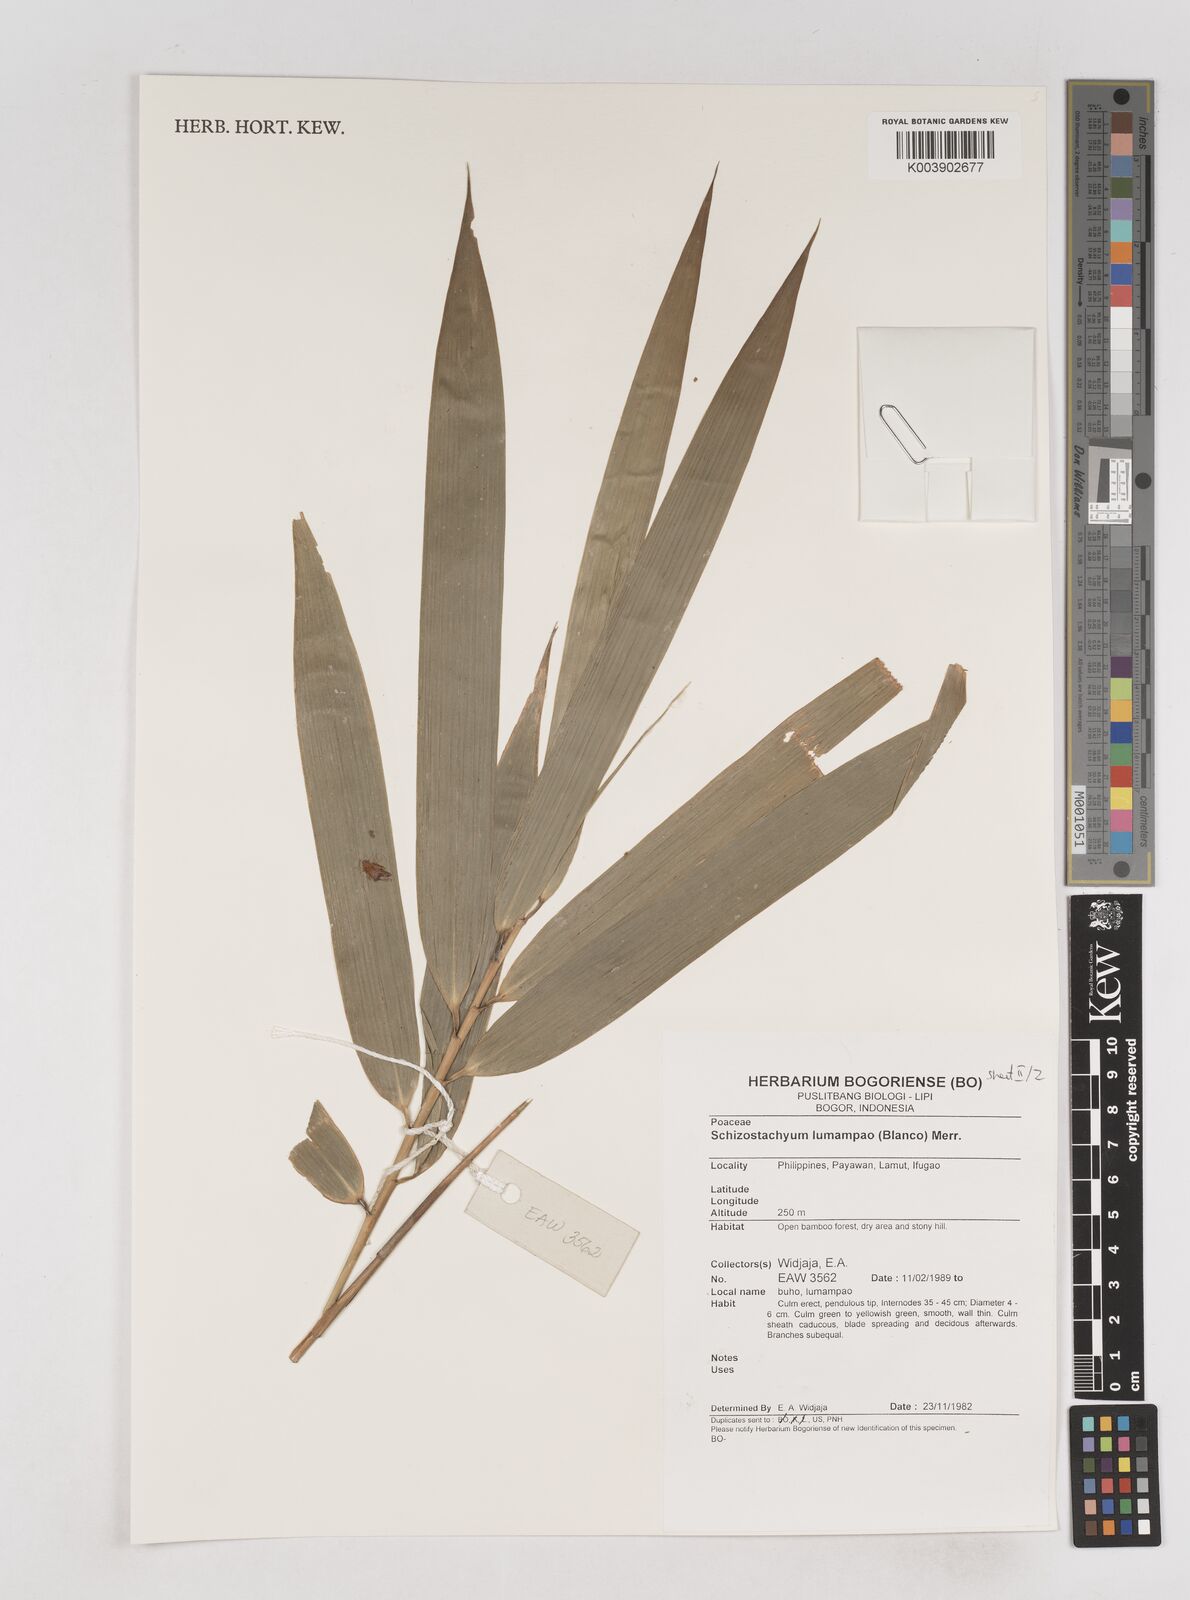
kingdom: Plantae
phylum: Tracheophyta
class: Liliopsida
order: Poales
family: Poaceae
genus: Schizostachyum
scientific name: Schizostachyum lumampao
